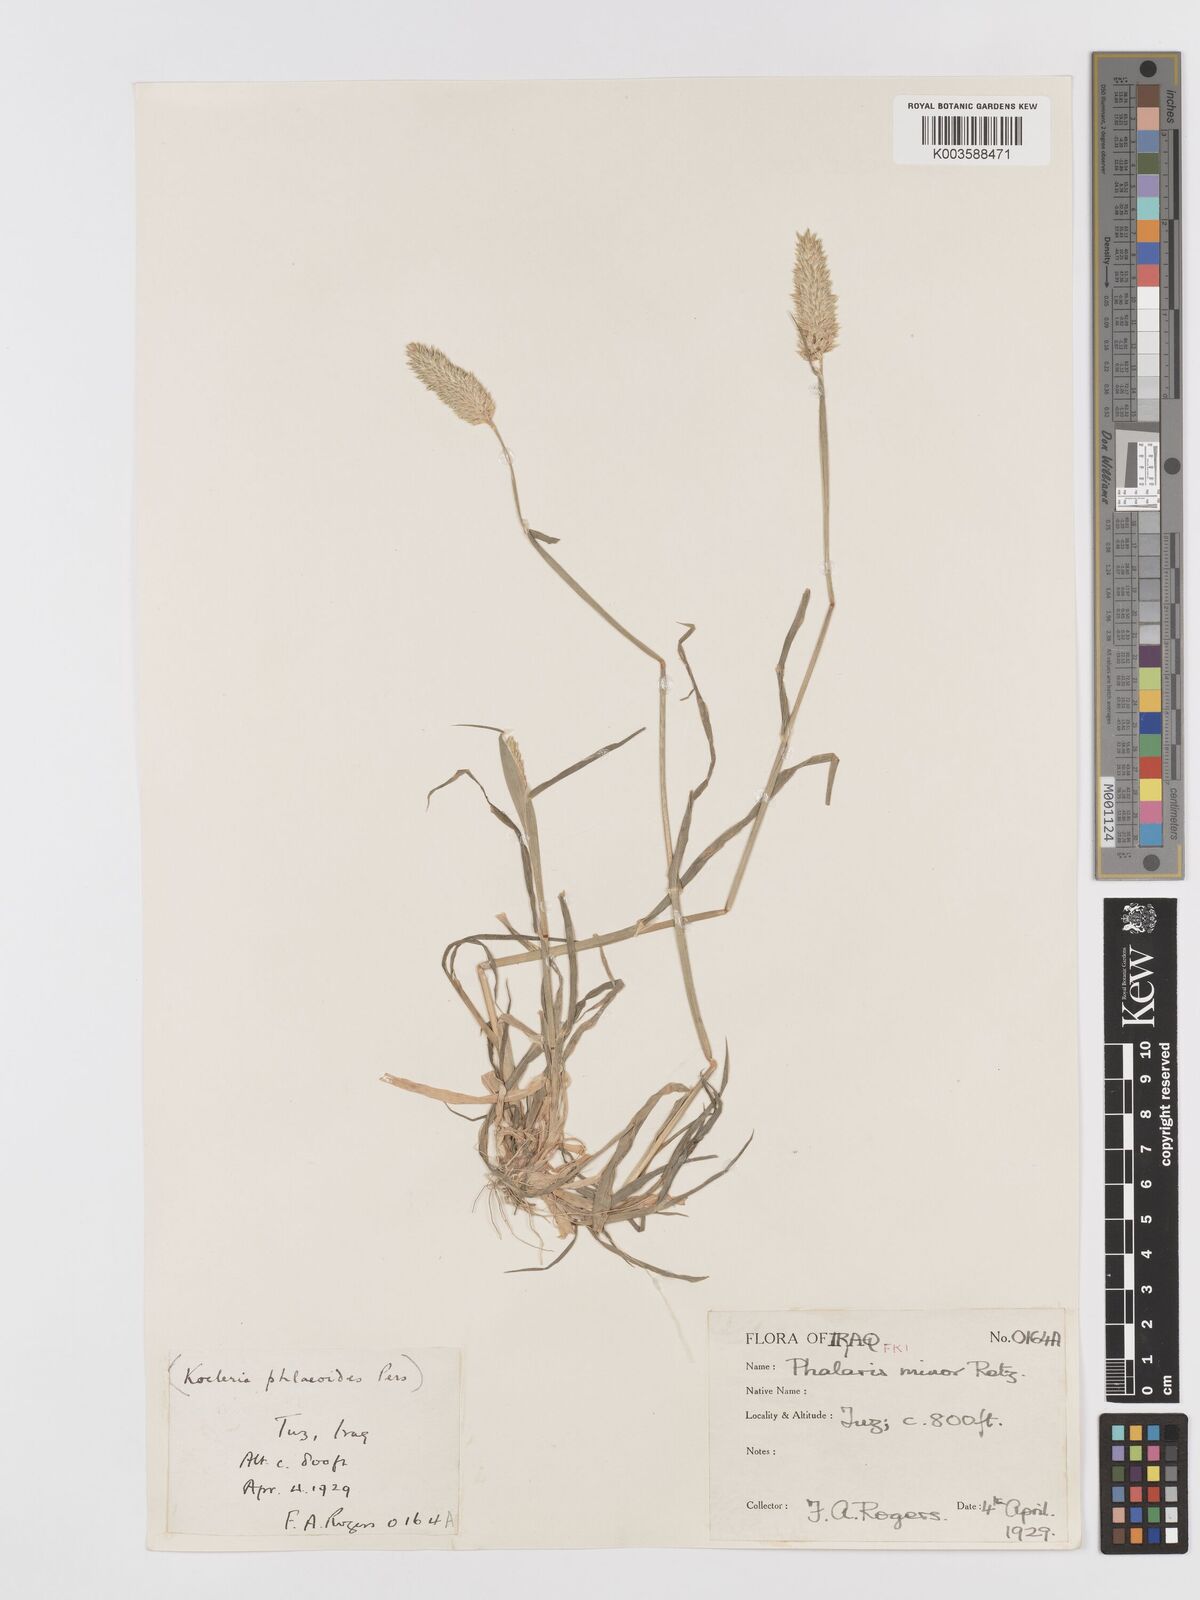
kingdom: Plantae
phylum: Tracheophyta
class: Liliopsida
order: Poales
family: Poaceae
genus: Phalaris
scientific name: Phalaris minor
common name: Littleseed canarygrass
